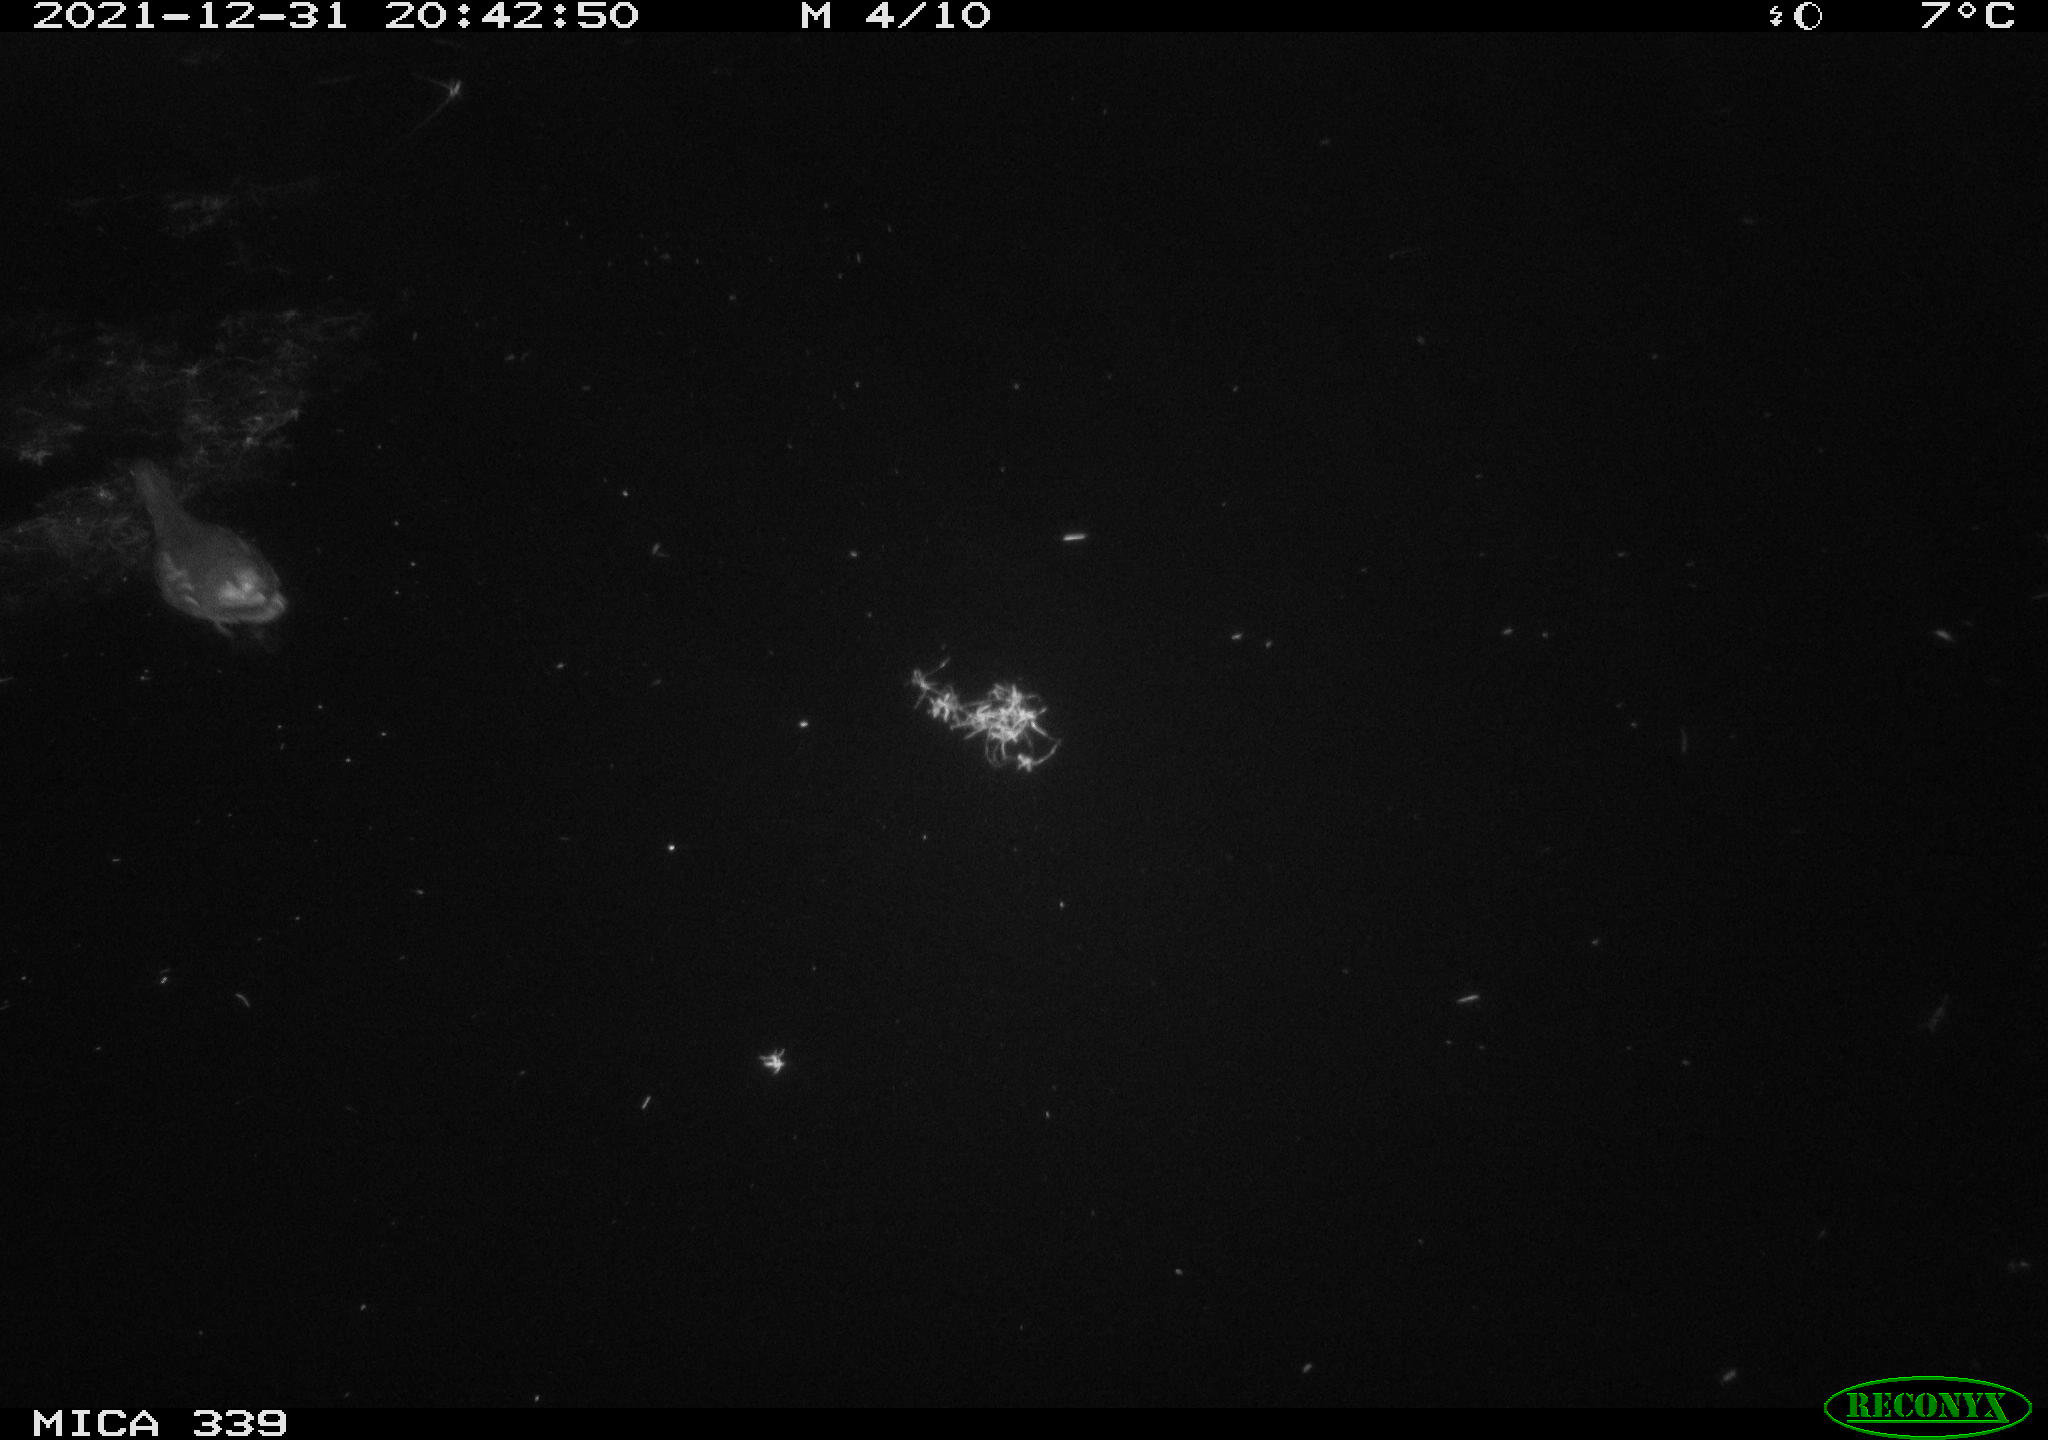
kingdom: Animalia
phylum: Chordata
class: Aves
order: Gruiformes
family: Rallidae
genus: Gallinula
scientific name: Gallinula chloropus
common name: Common moorhen
